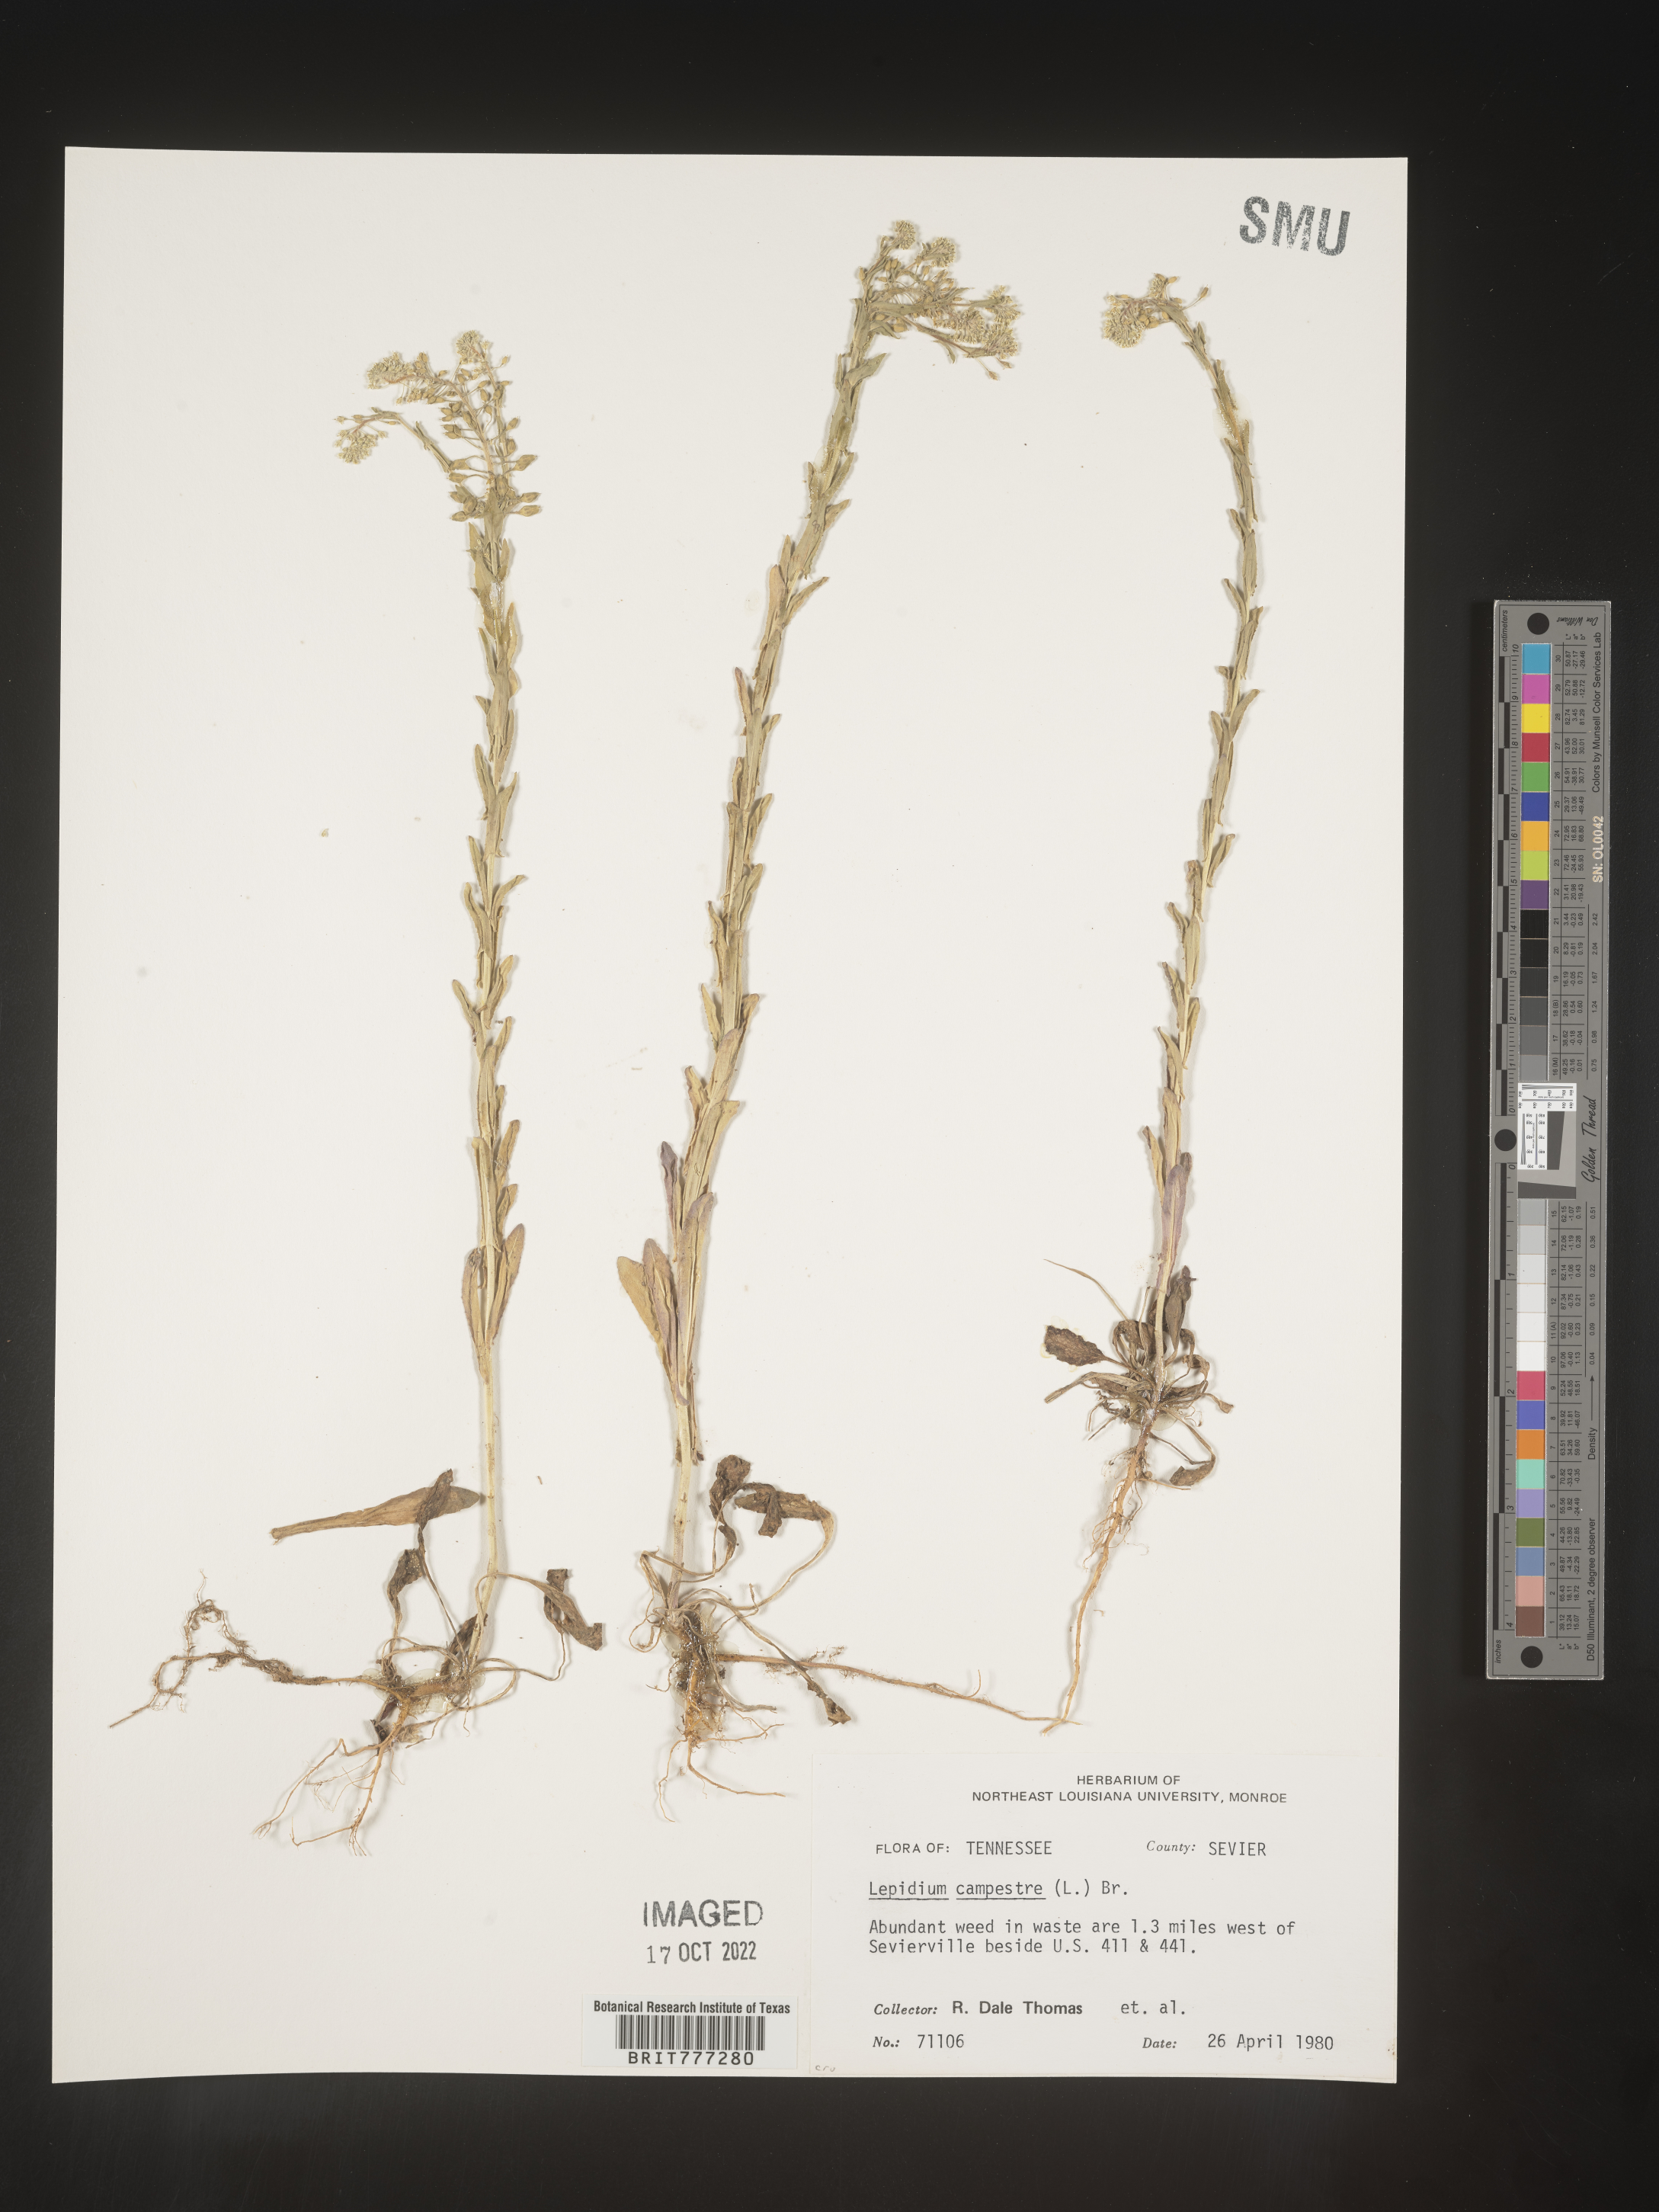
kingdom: Plantae
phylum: Tracheophyta
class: Magnoliopsida
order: Brassicales
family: Brassicaceae
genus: Lepidium
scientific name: Lepidium campestre
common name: Field pepperwort
